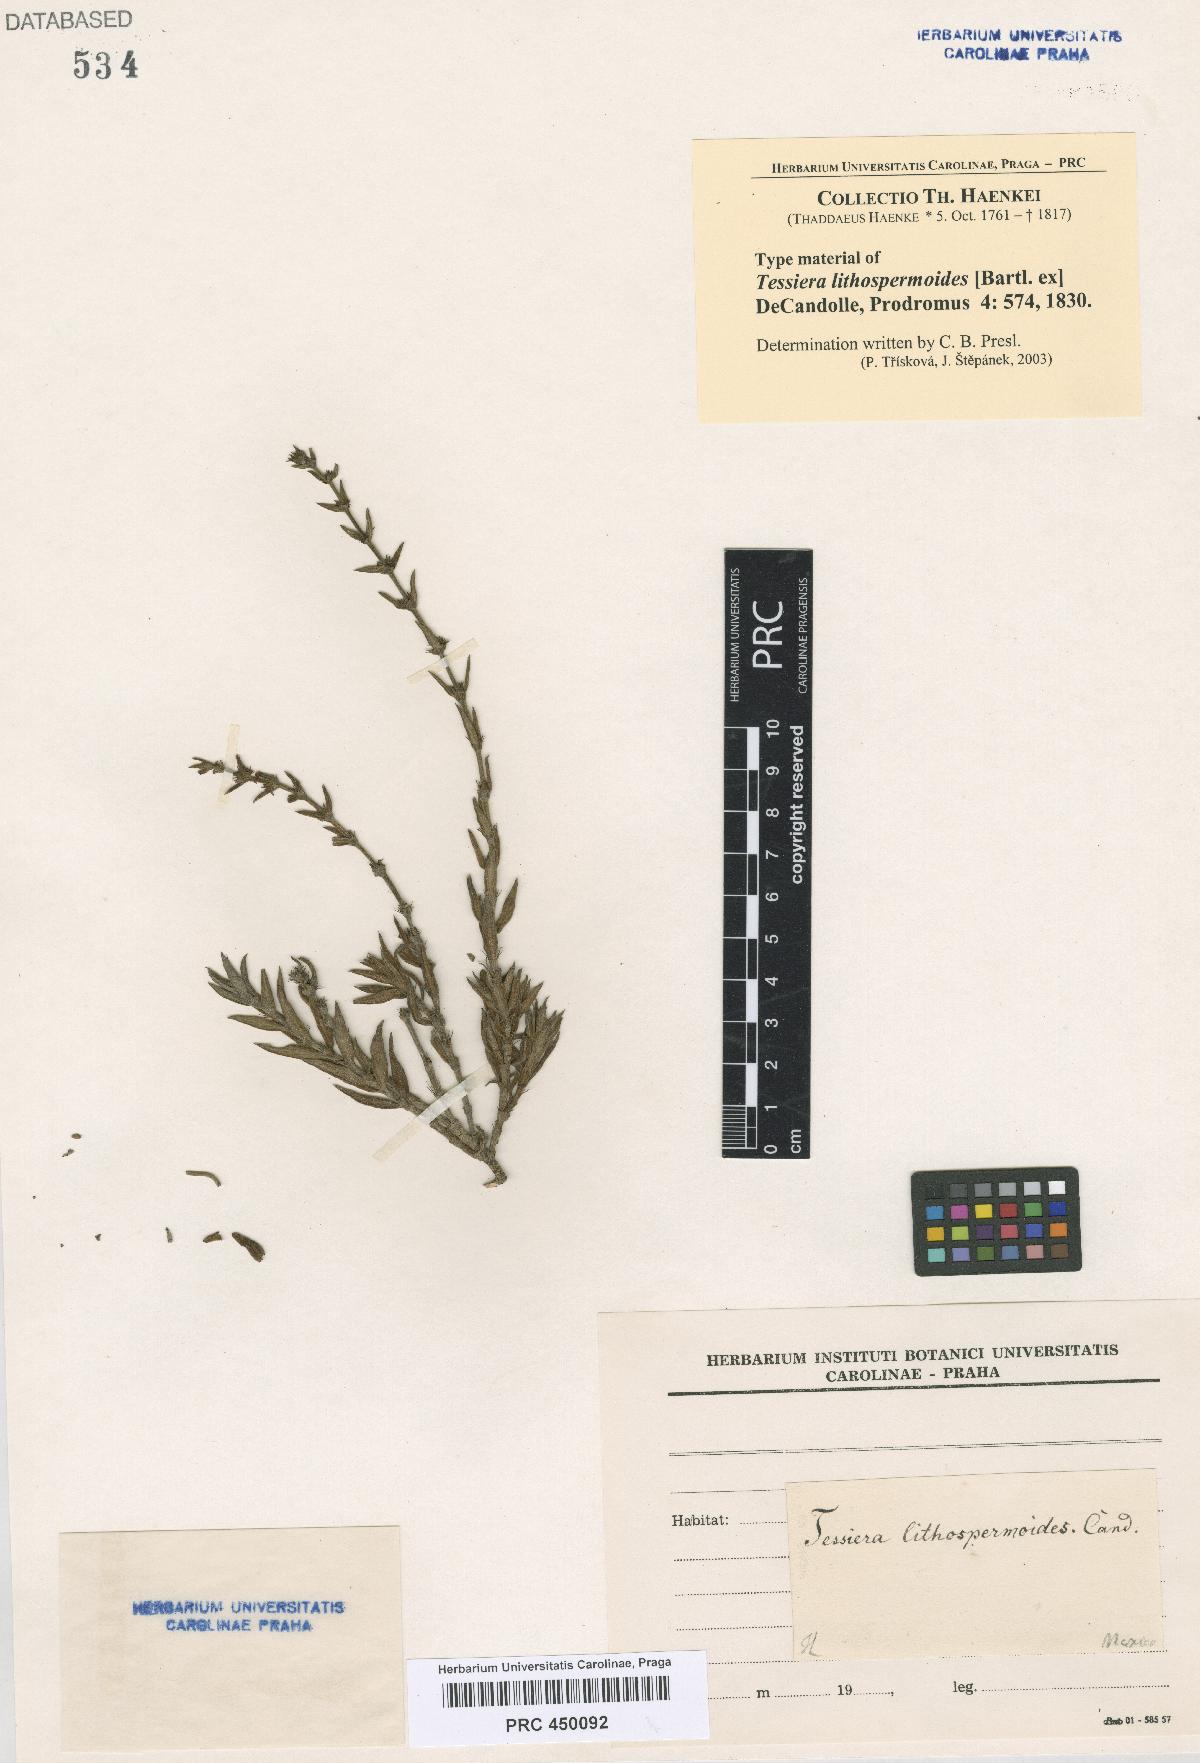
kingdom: Plantae
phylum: Tracheophyta
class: Magnoliopsida
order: Gentianales
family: Rubiaceae
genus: Tessiera
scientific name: Tessiera lithospermoides
